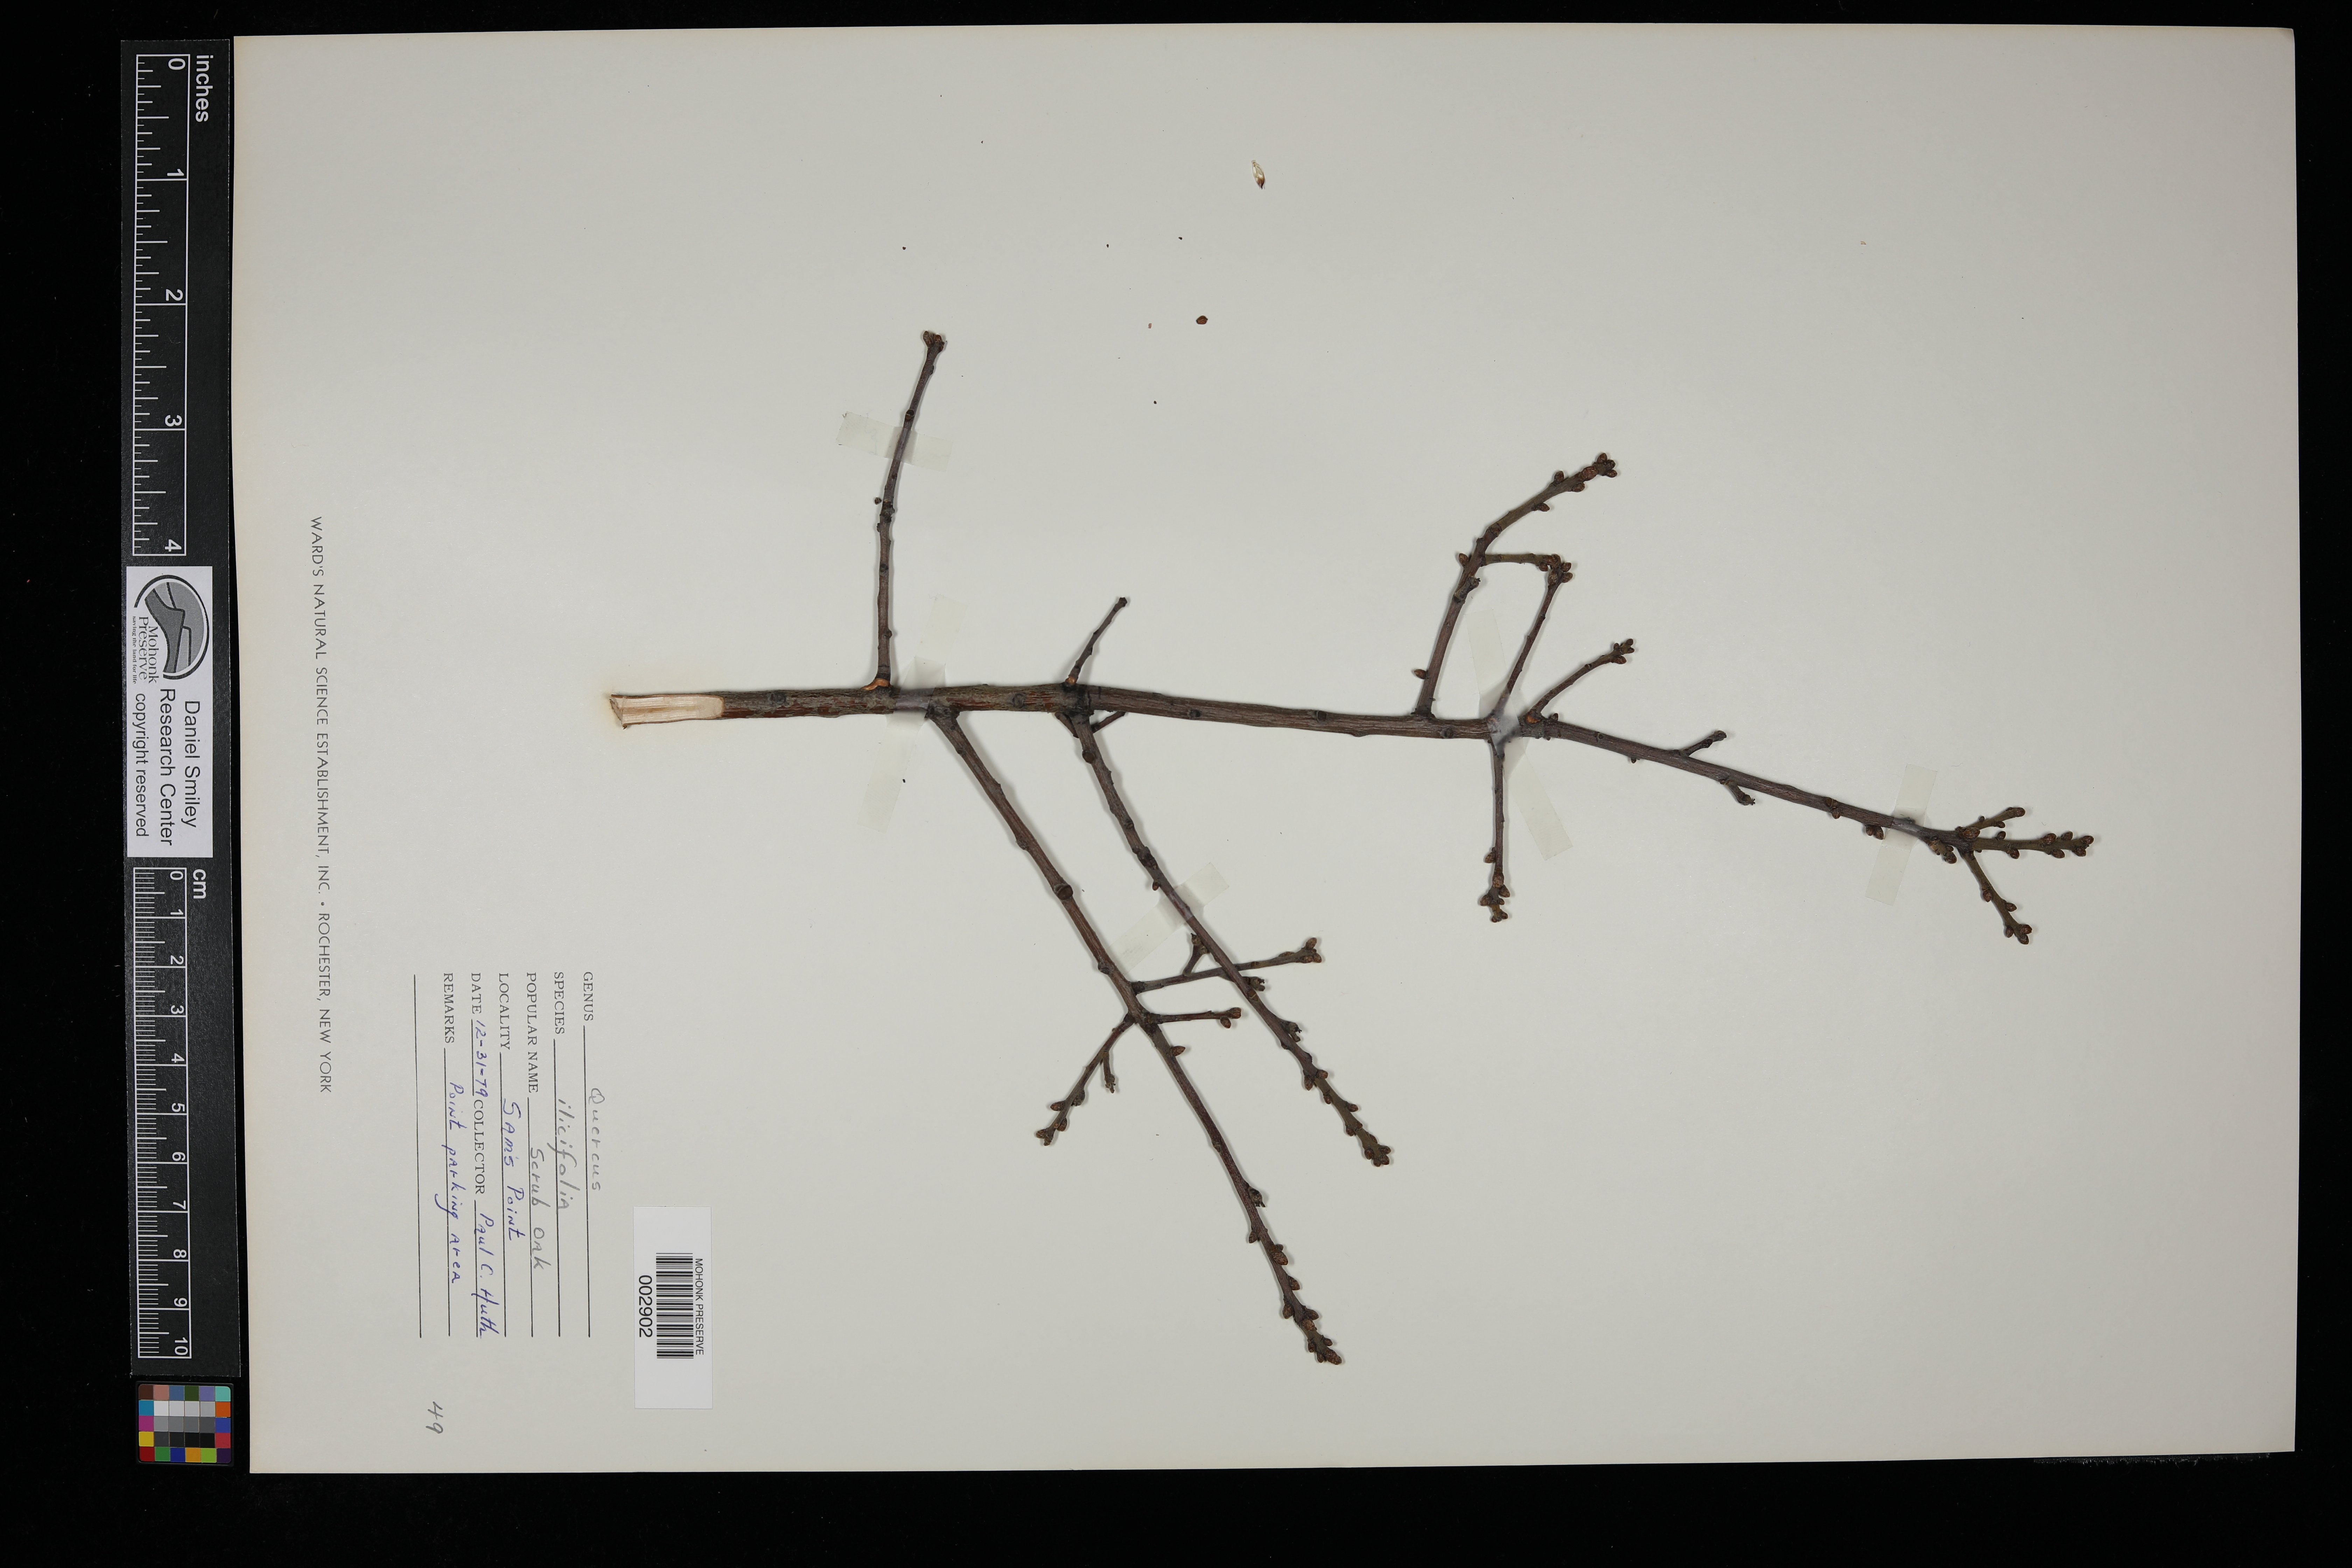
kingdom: Plantae
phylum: Tracheophyta
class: Magnoliopsida
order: Fagales
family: Fagaceae
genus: Quercus
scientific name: Quercus ilicifolia
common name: Bear oak
